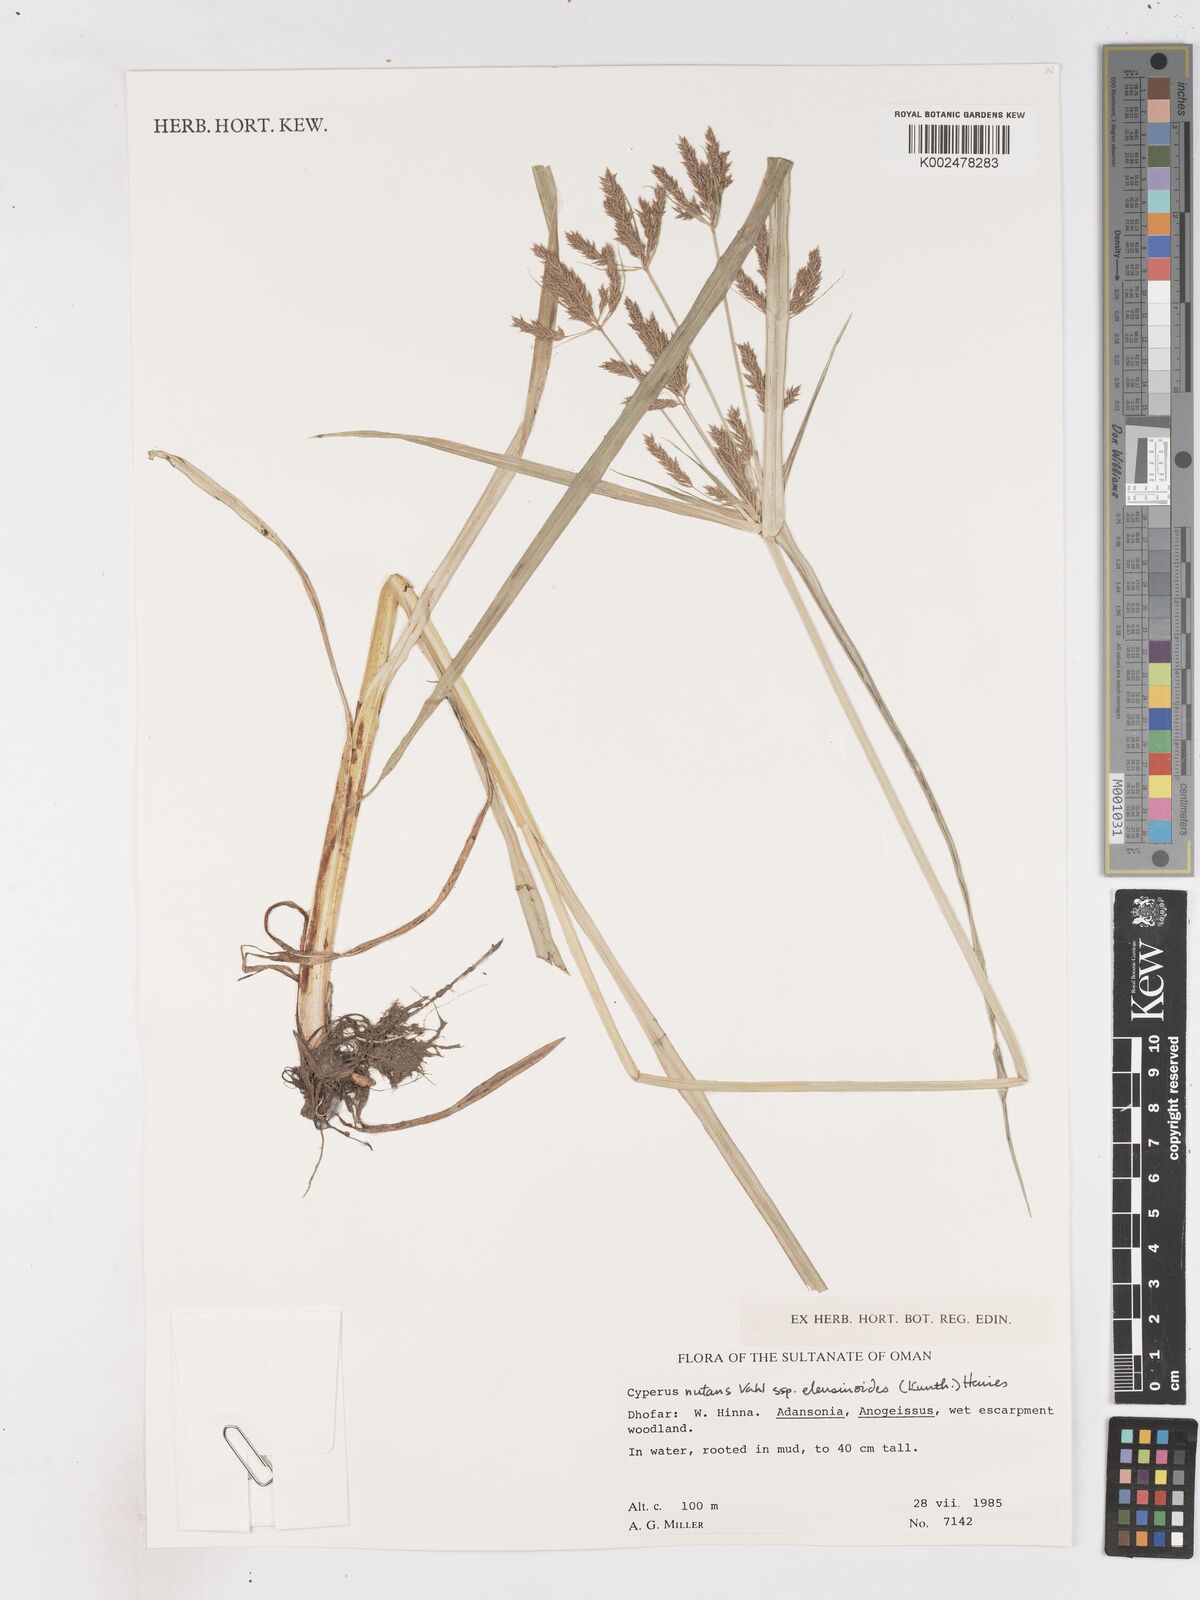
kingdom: Plantae
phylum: Tracheophyta
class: Liliopsida
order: Poales
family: Cyperaceae
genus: Cyperus
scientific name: Cyperus nutans
